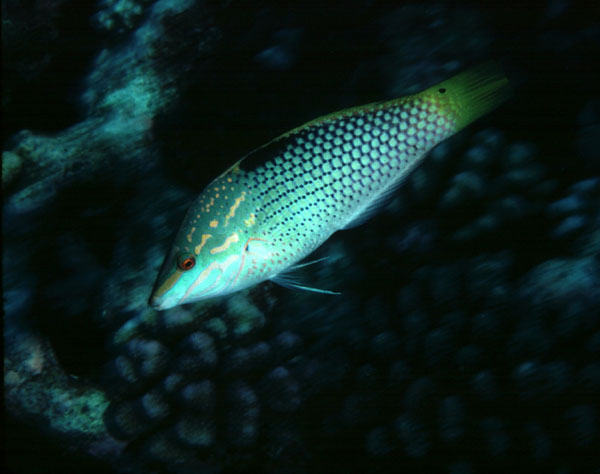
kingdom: Animalia
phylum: Chordata
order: Perciformes
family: Labridae
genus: Halichoeres
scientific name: Halichoeres hortulanus
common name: Checkerboard wrasse
